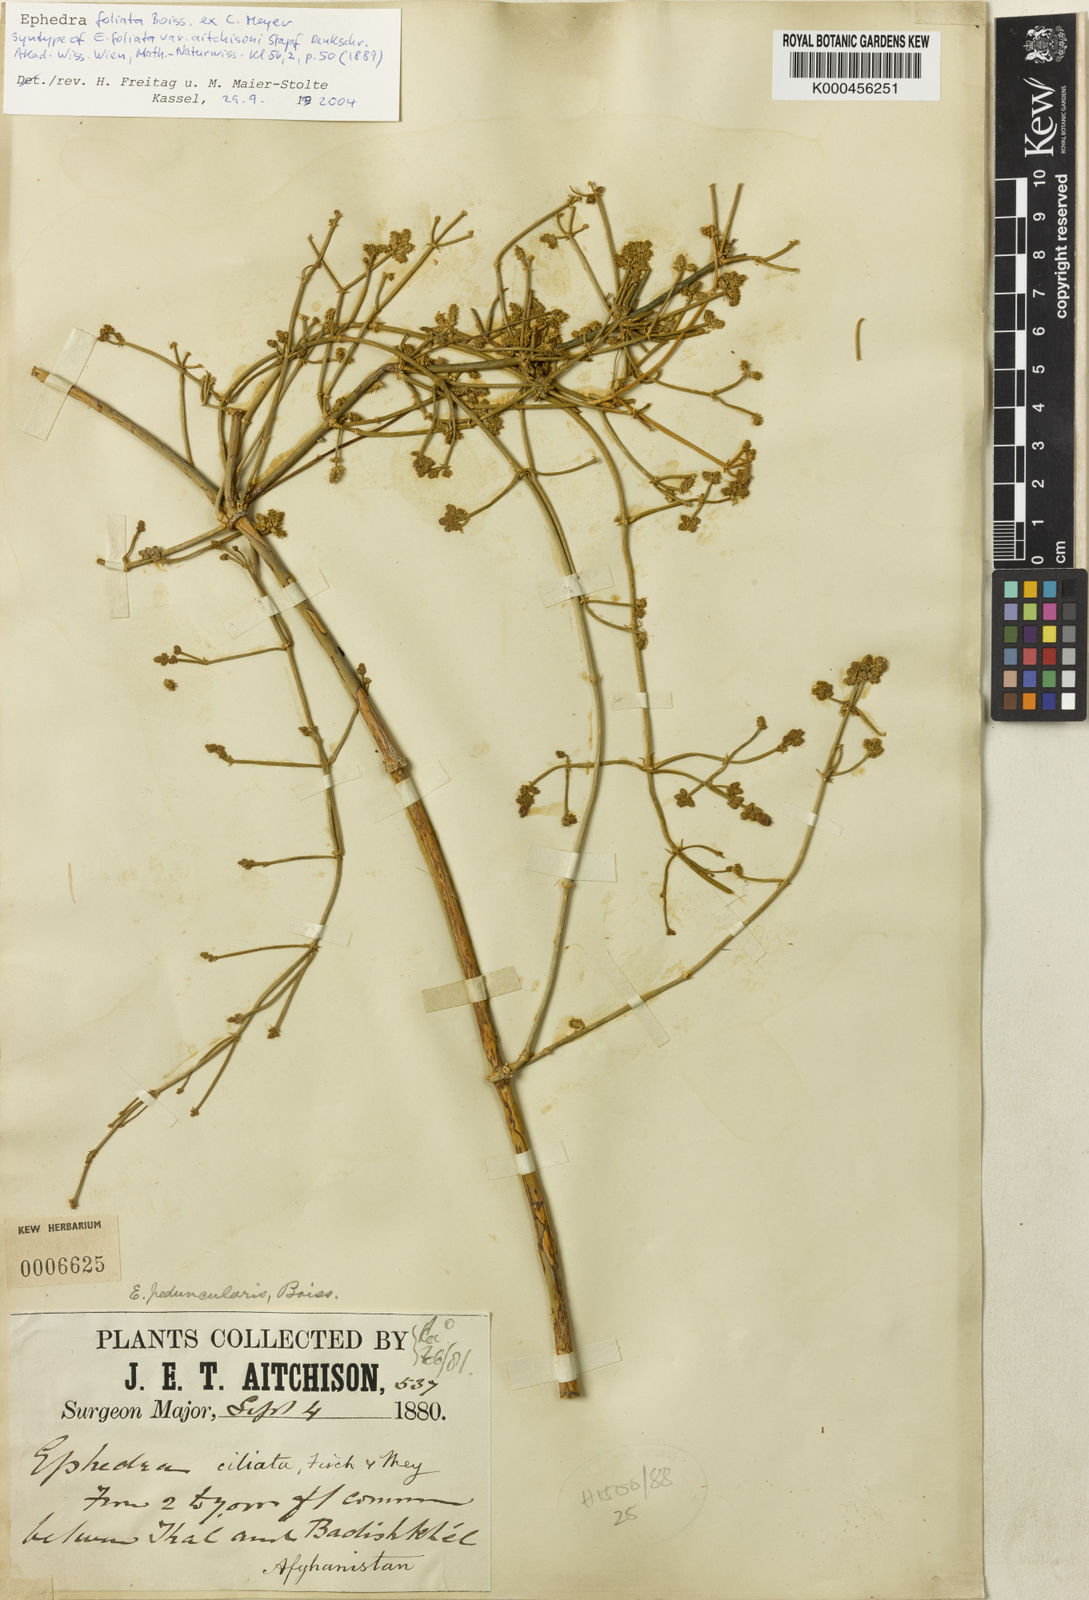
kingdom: Plantae
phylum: Tracheophyta
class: Gnetopsida
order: Ephedrales
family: Ephedraceae
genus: Ephedra
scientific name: Ephedra ciliata
